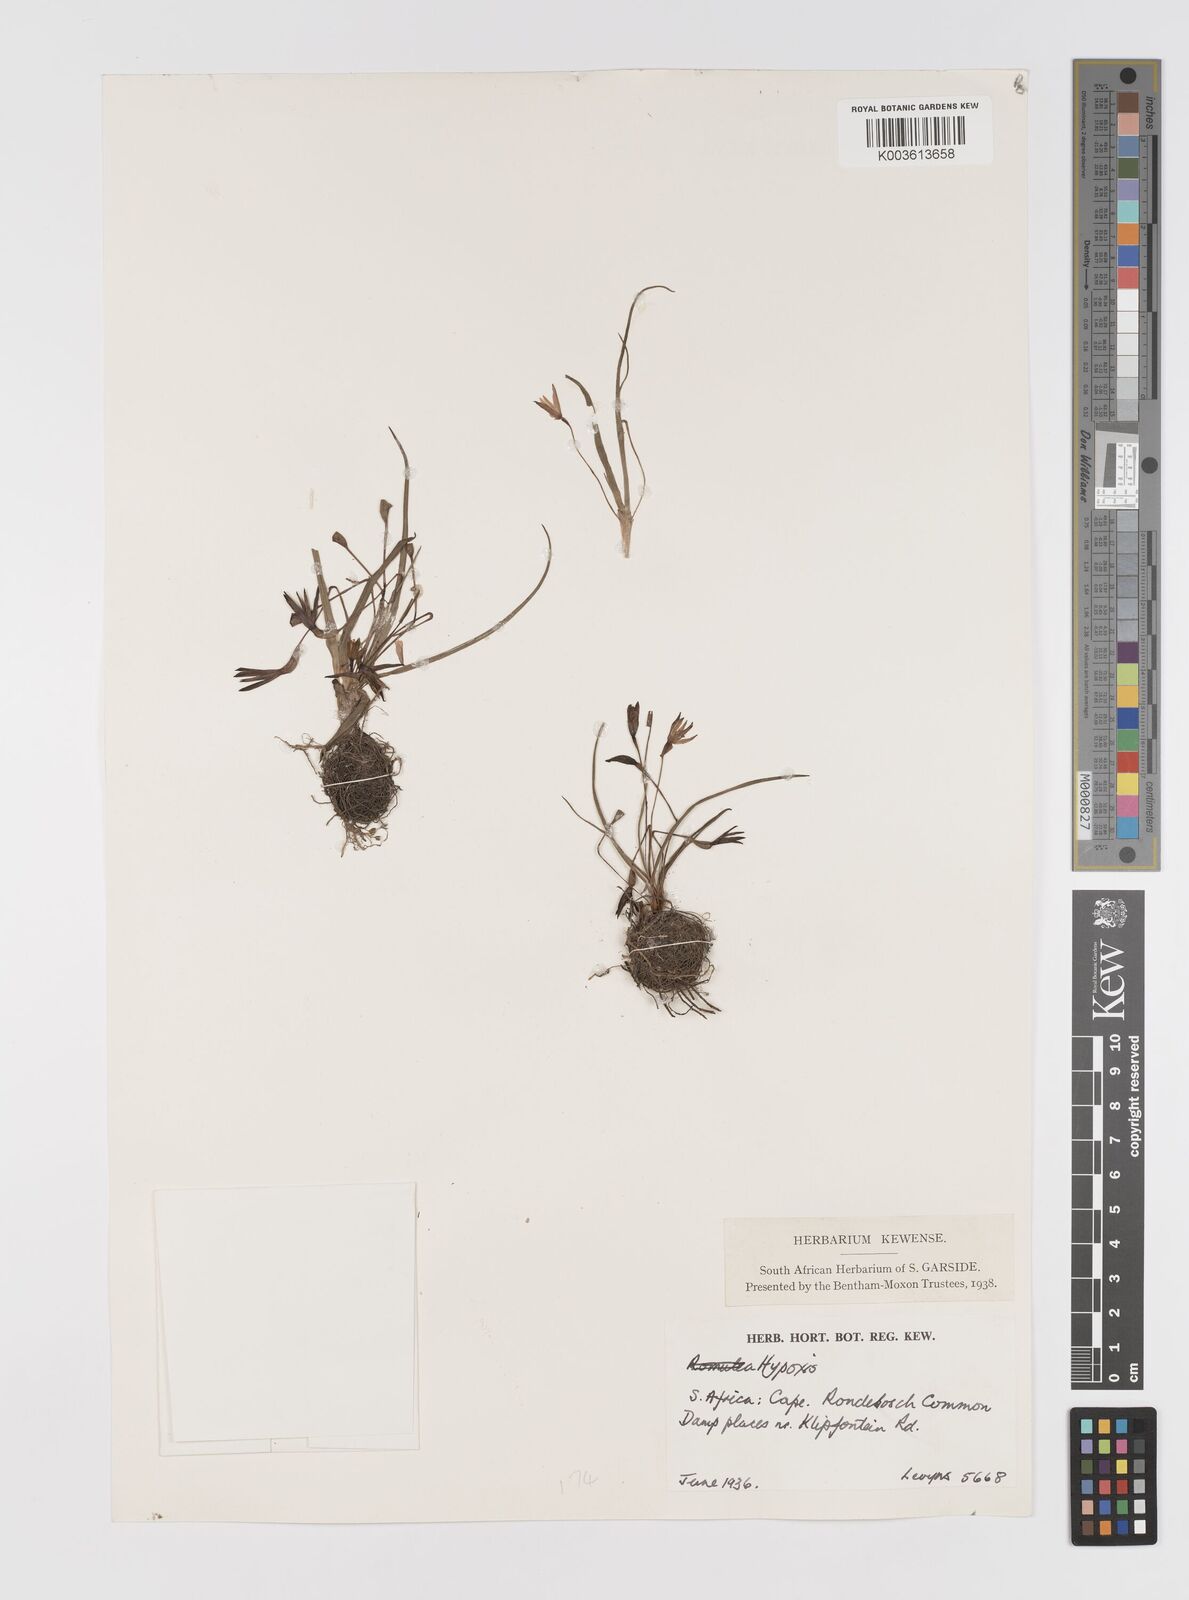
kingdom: Plantae
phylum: Tracheophyta
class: Liliopsida
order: Asparagales
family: Hypoxidaceae
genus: Pauridia
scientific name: Pauridia
